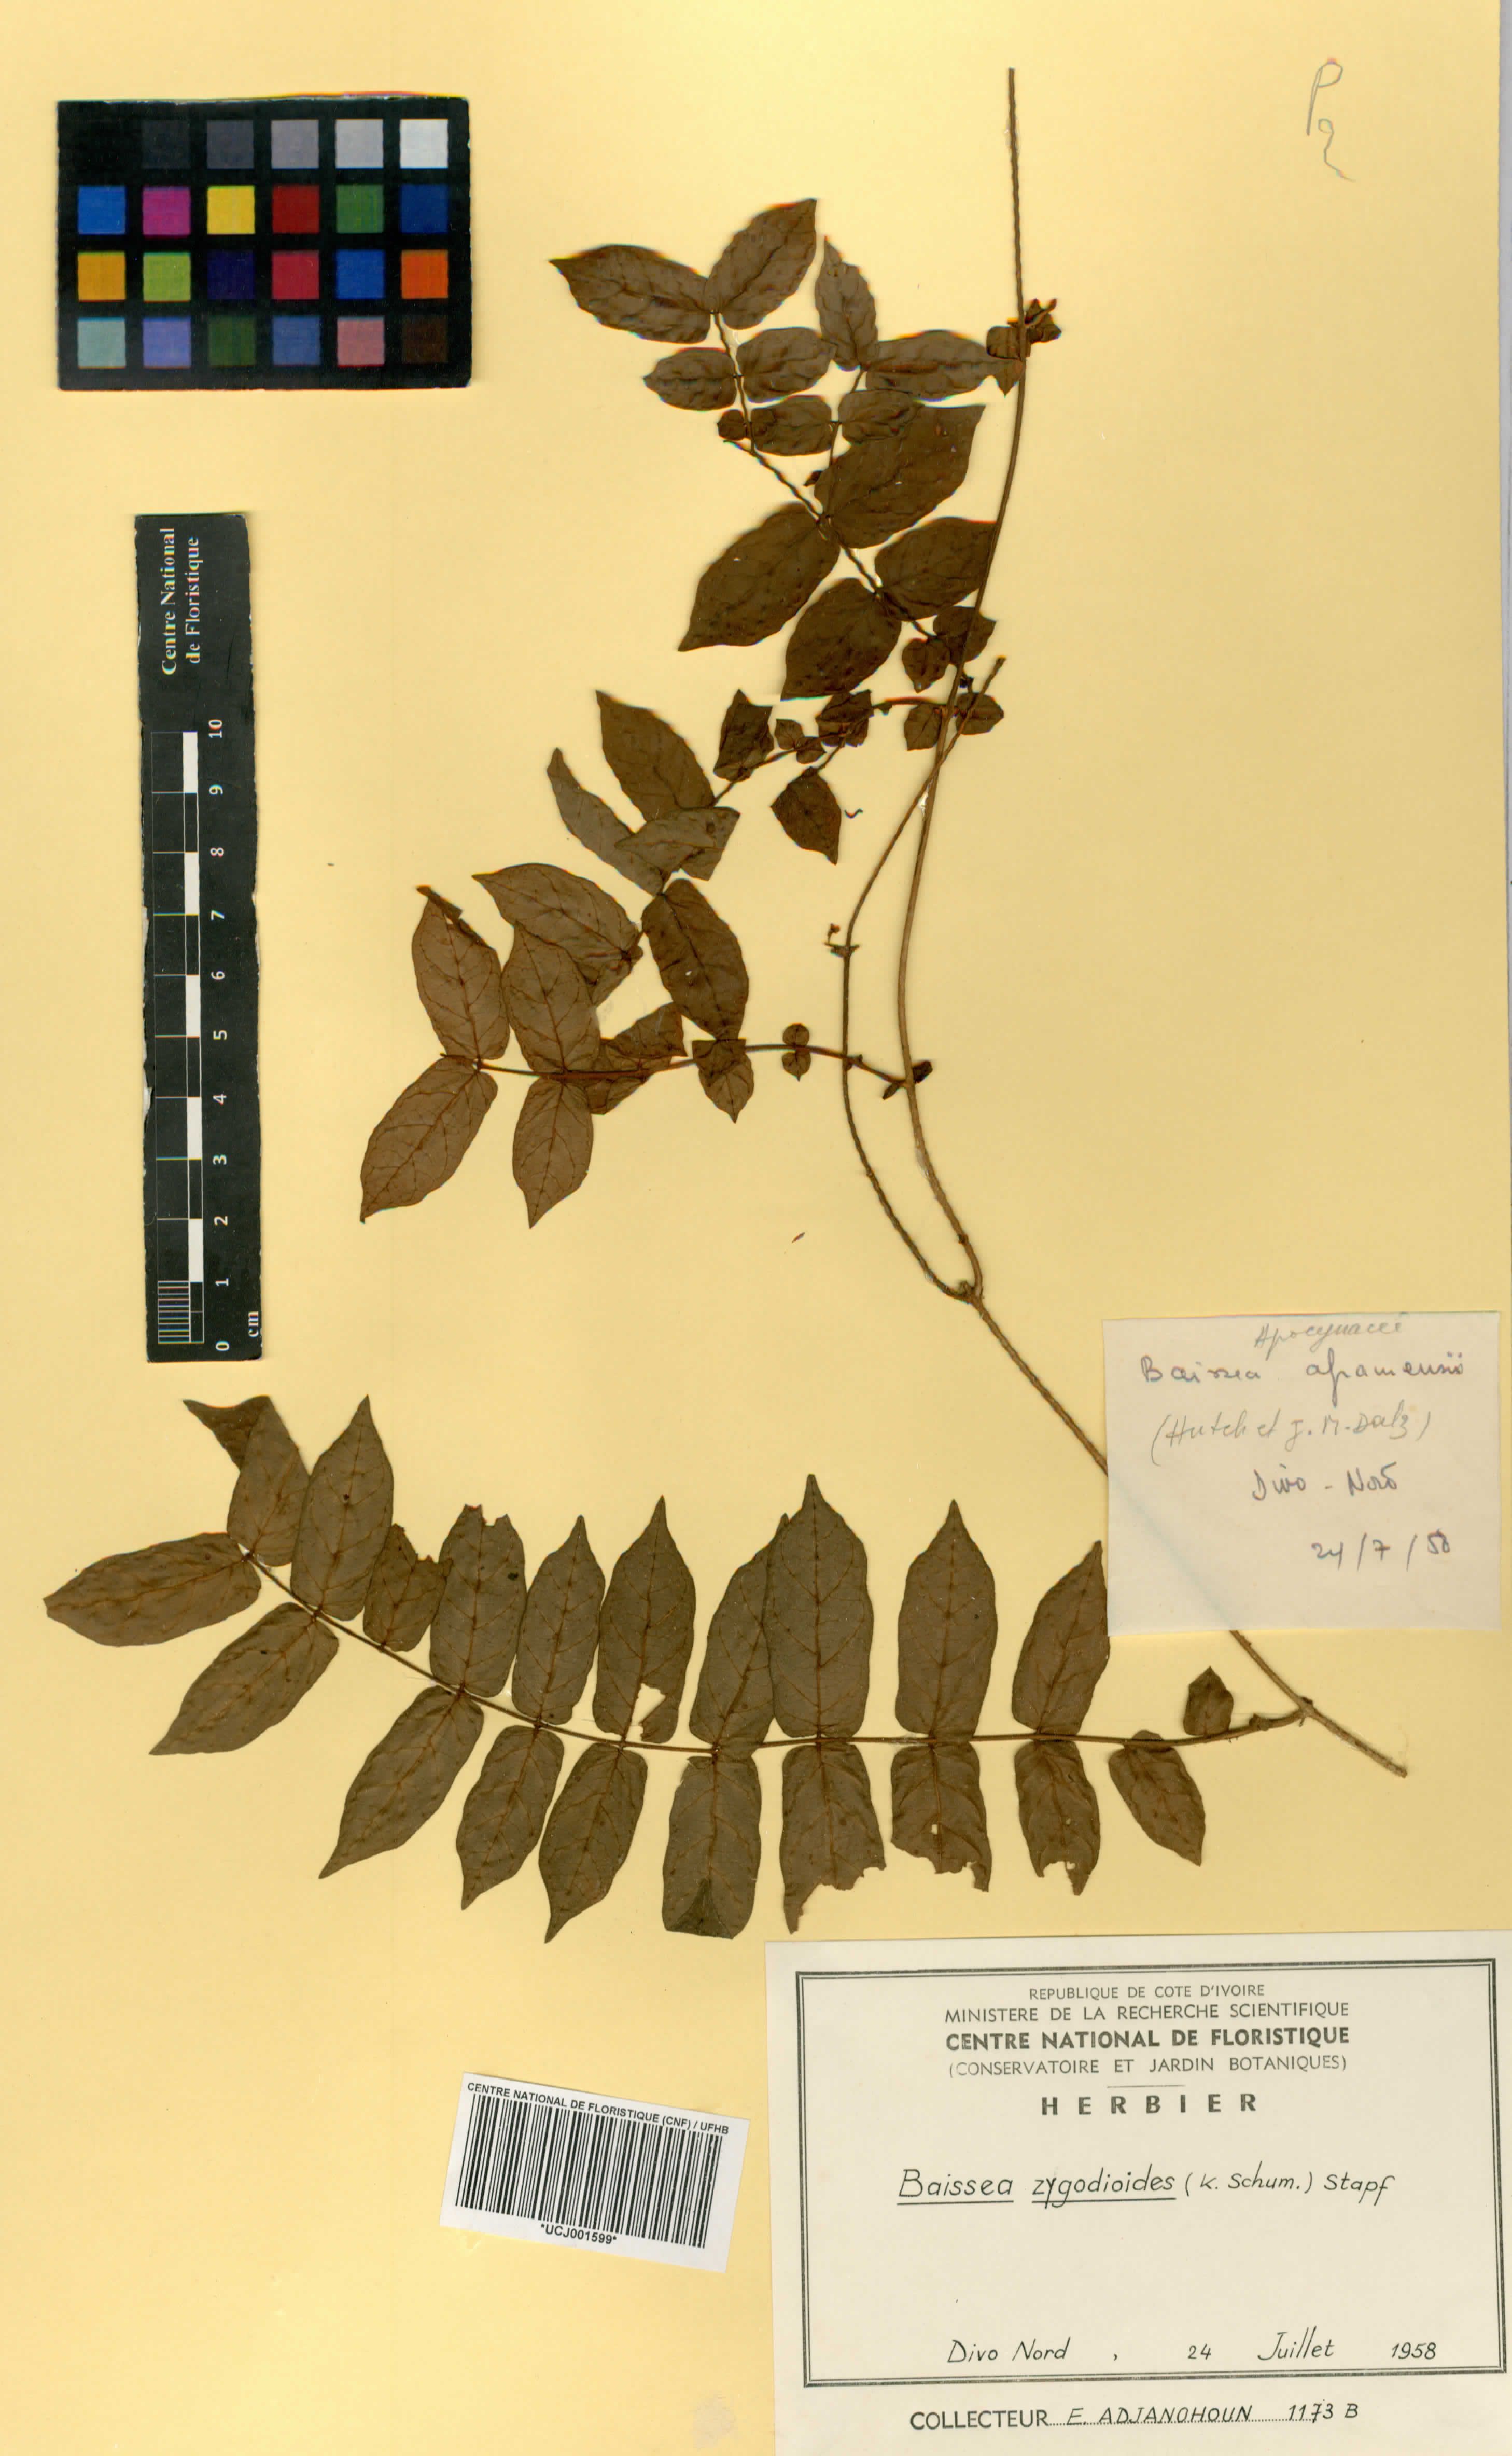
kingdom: Plantae
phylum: Tracheophyta
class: Magnoliopsida
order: Gentianales
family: Apocynaceae
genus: Baissea
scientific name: Baissea zygodioides
